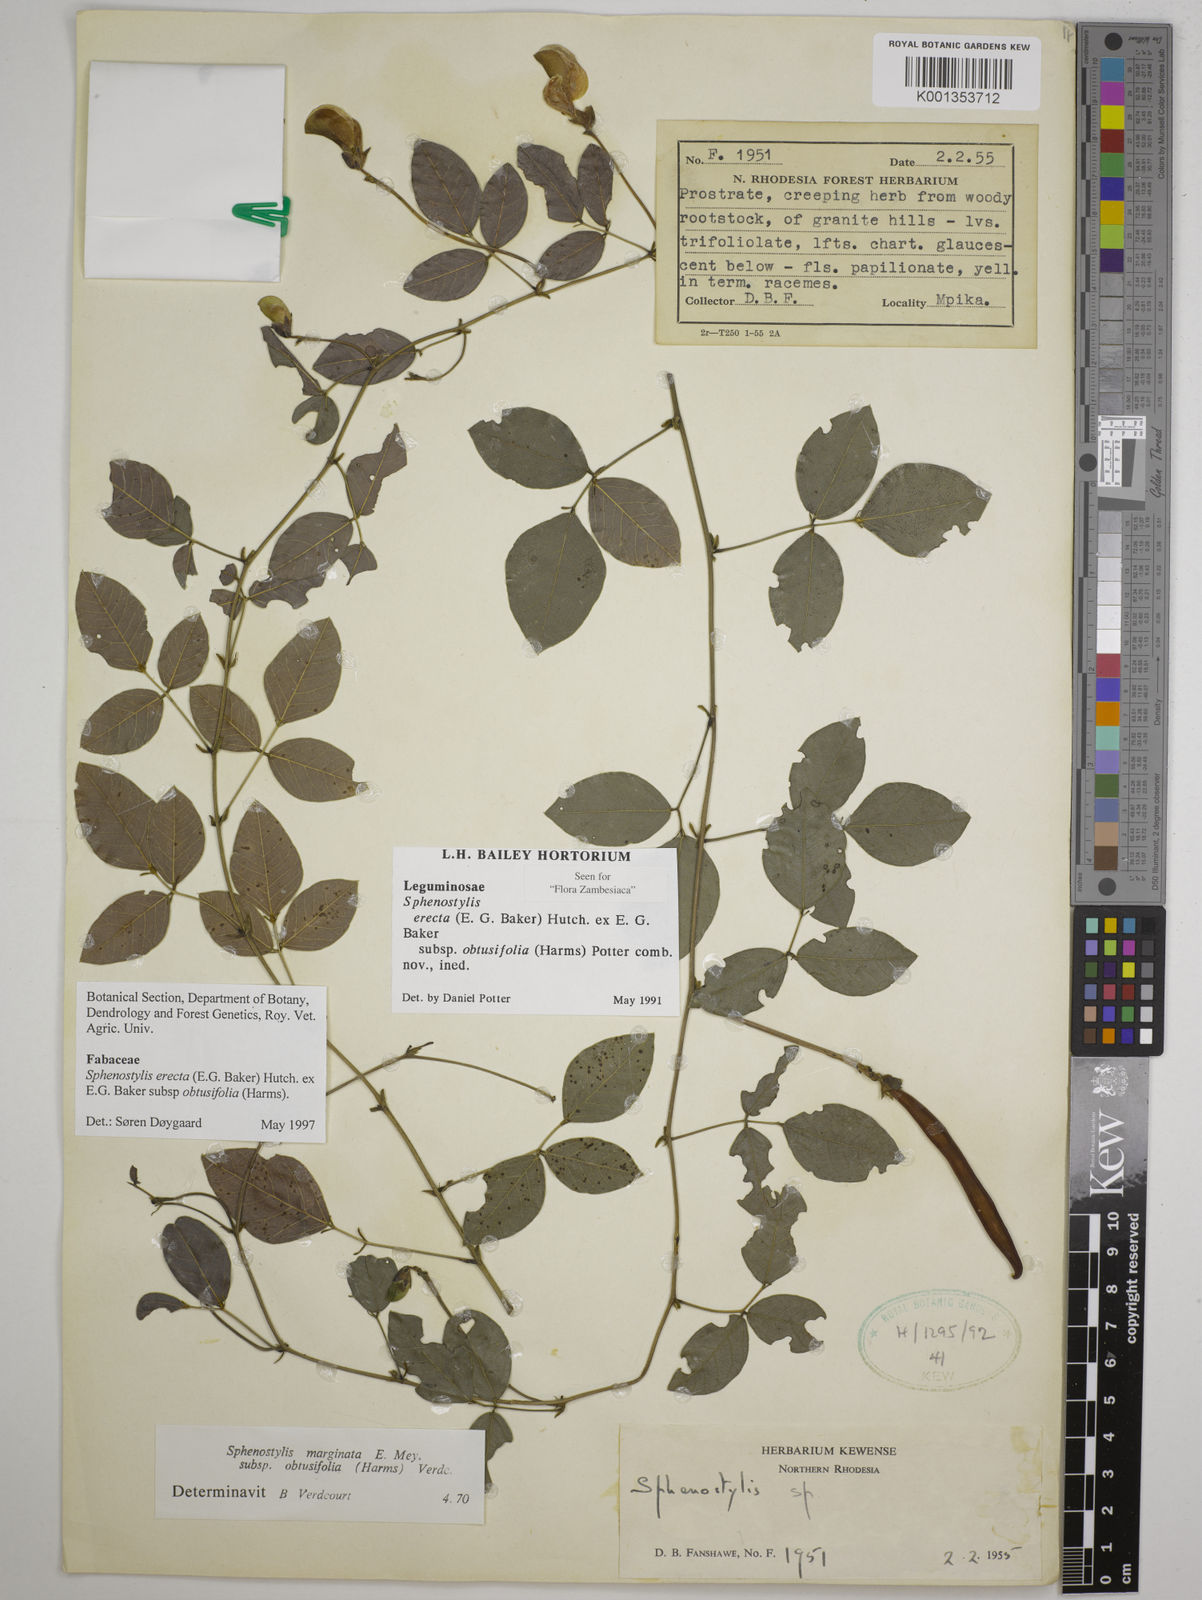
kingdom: Plantae
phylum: Tracheophyta
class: Magnoliopsida
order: Fabales
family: Fabaceae
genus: Sphenostylis
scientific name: Sphenostylis
